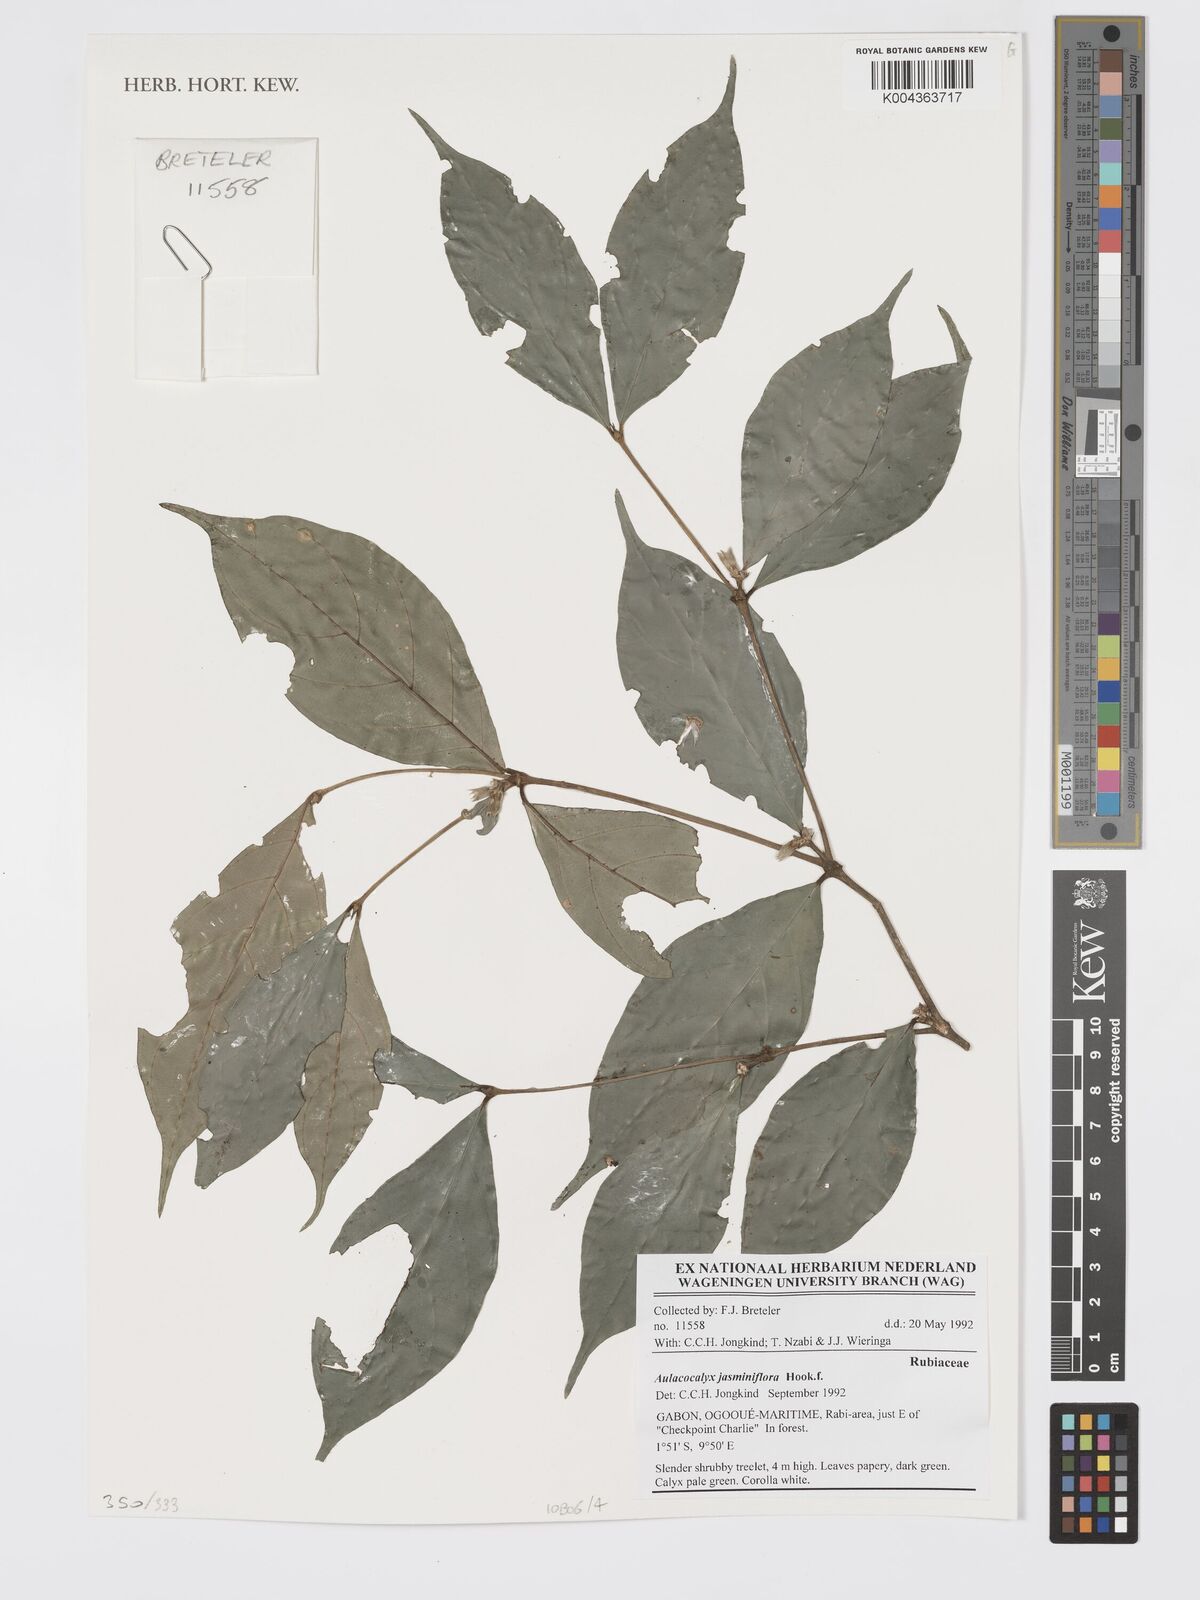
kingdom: Plantae
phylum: Tracheophyta
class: Magnoliopsida
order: Gentianales
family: Rubiaceae
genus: Aulacocalyx
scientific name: Aulacocalyx jasminiflora
